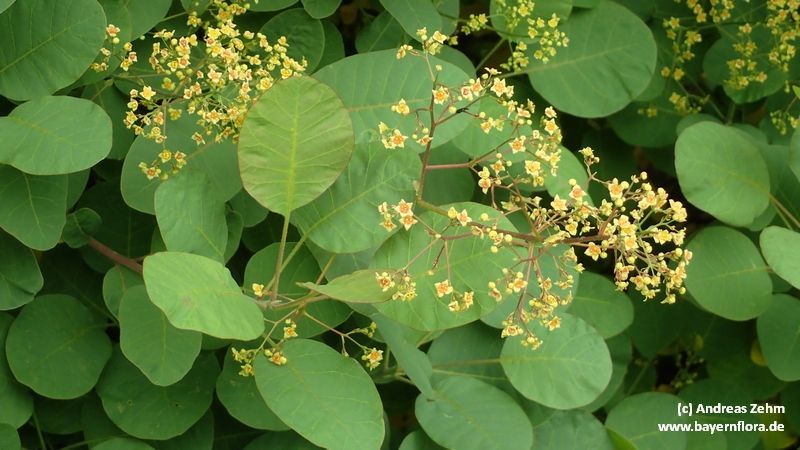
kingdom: Plantae
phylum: Tracheophyta
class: Magnoliopsida
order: Sapindales
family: Anacardiaceae
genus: Cotinus
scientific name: Cotinus coggygria
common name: Smoke-tree
